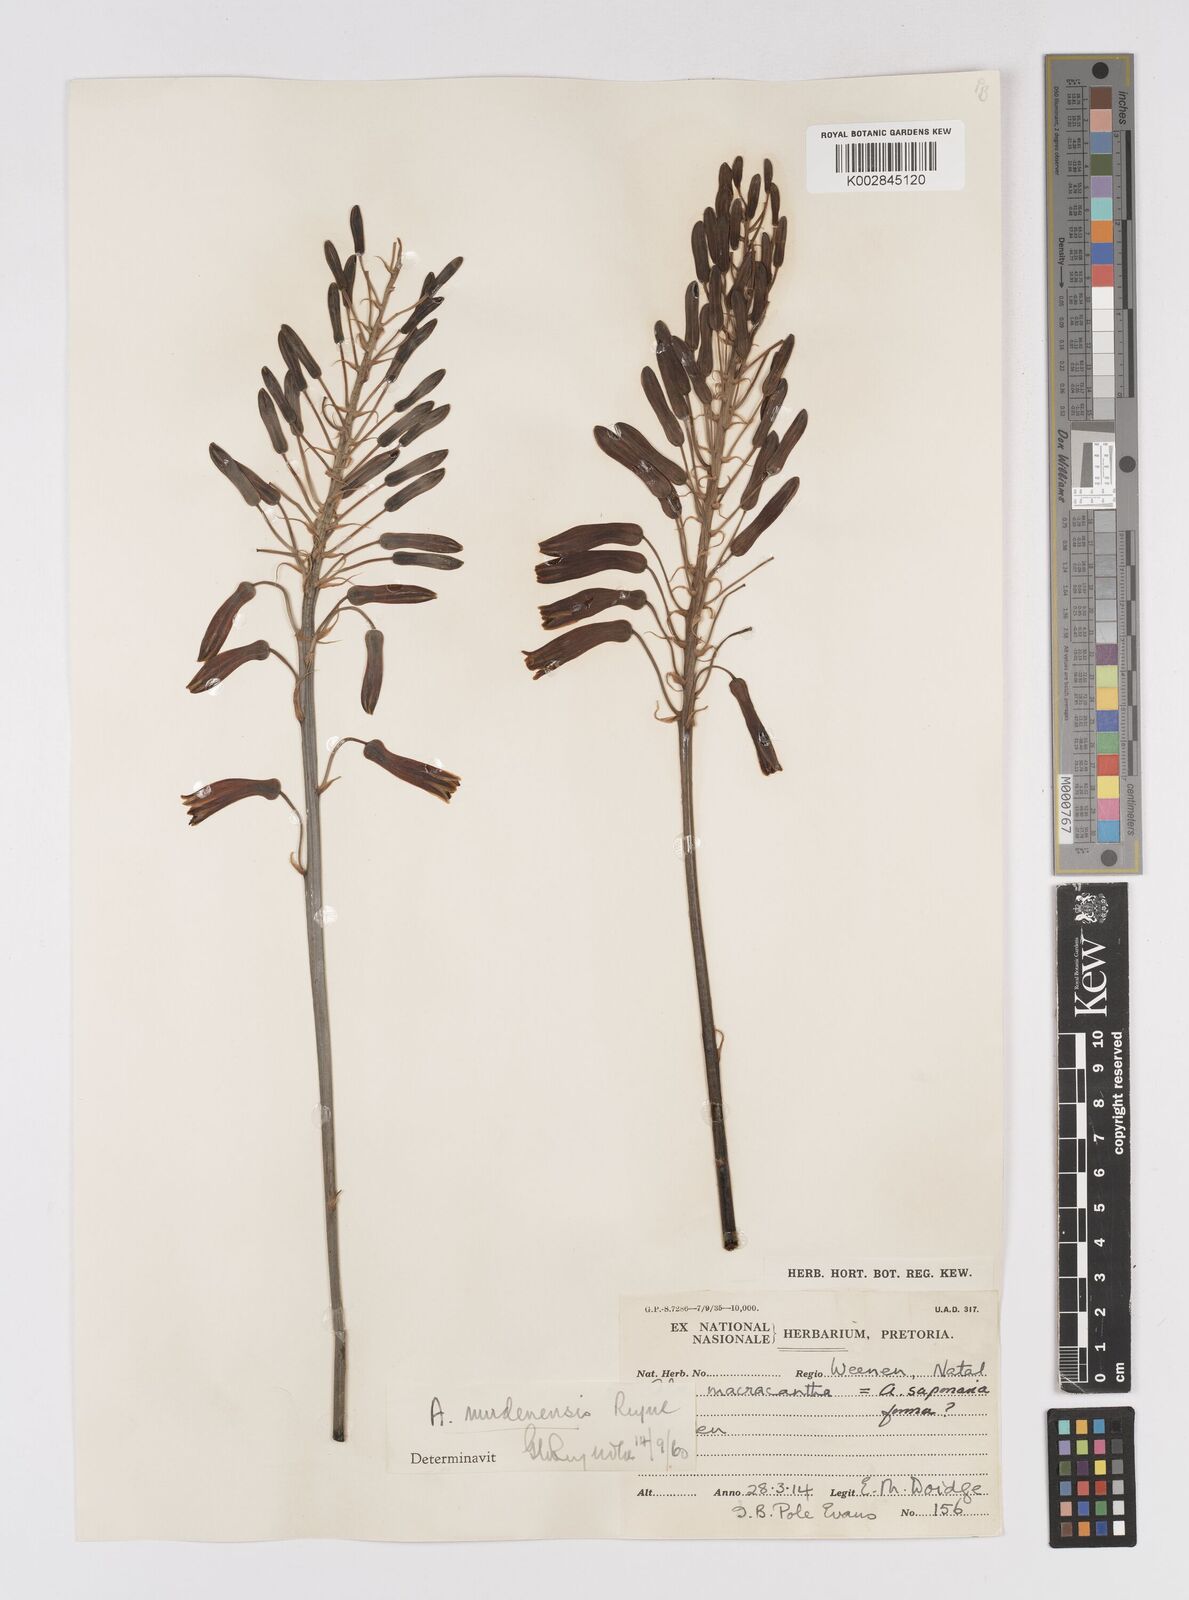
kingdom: Plantae
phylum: Tracheophyta
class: Liliopsida
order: Asparagales
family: Asphodelaceae
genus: Aloe
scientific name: Aloe mudenensis
